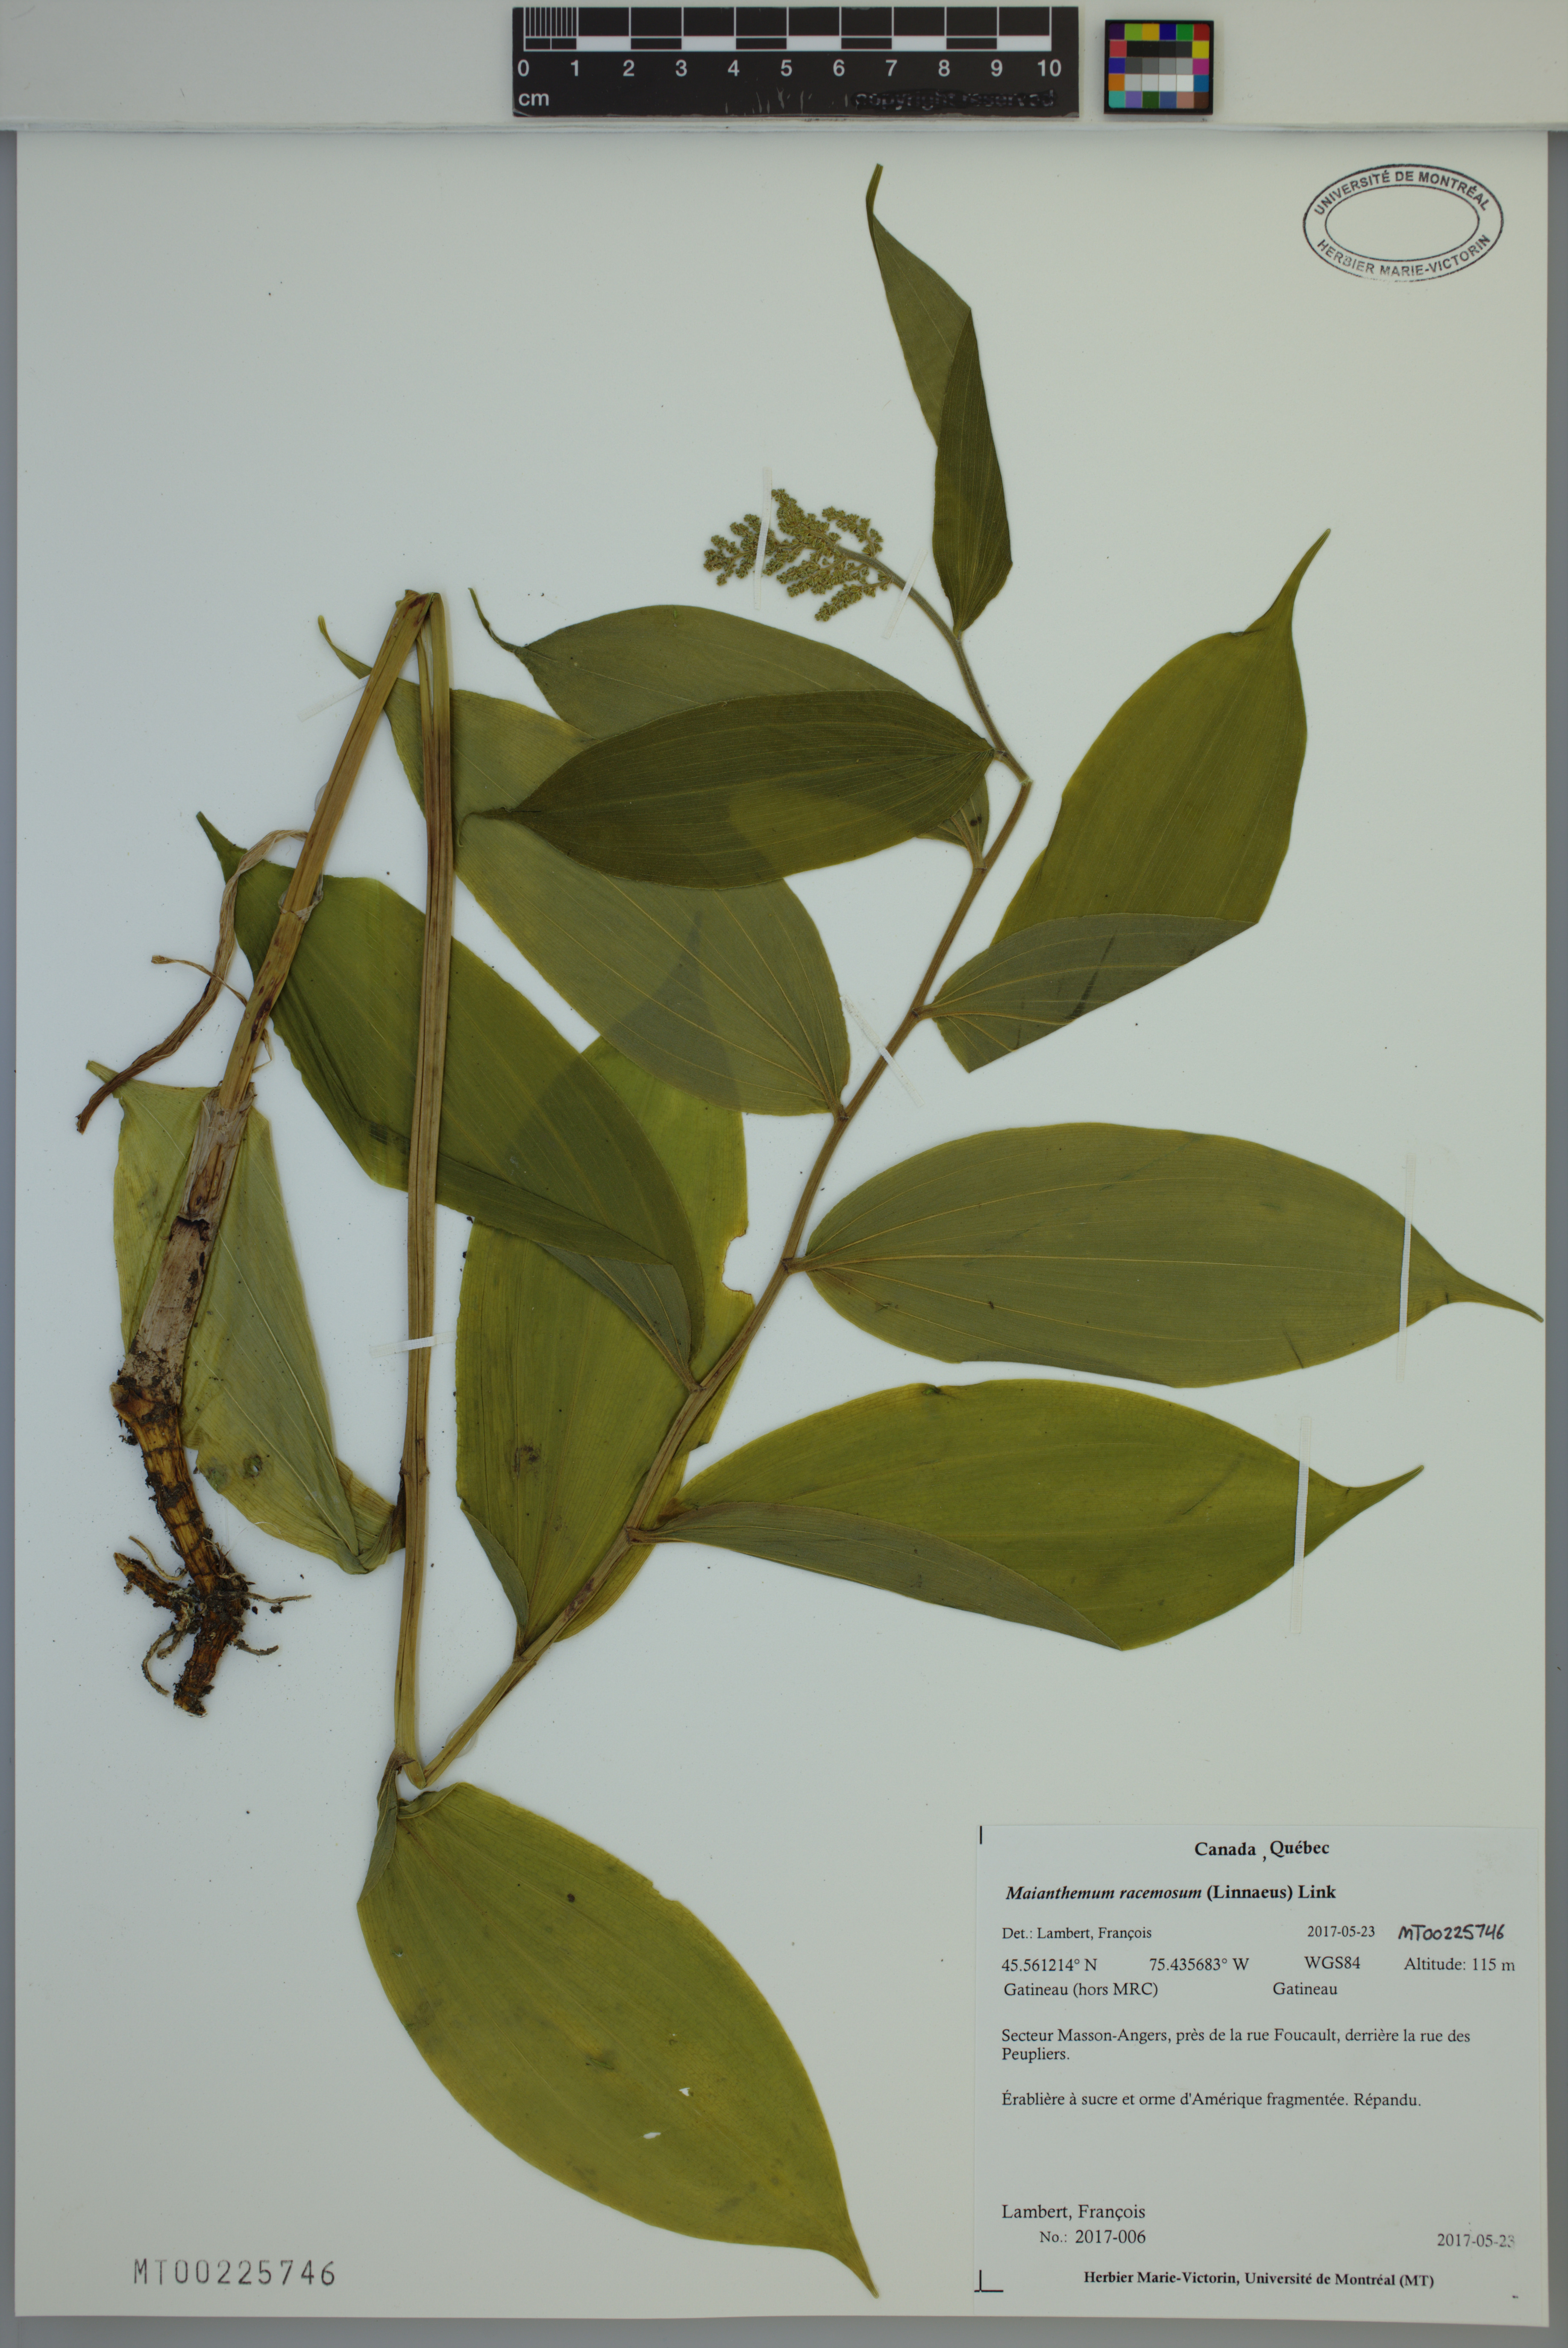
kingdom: Plantae
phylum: Tracheophyta
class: Liliopsida
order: Asparagales
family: Asparagaceae
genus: Maianthemum
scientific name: Maianthemum racemosum
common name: False spikenard
